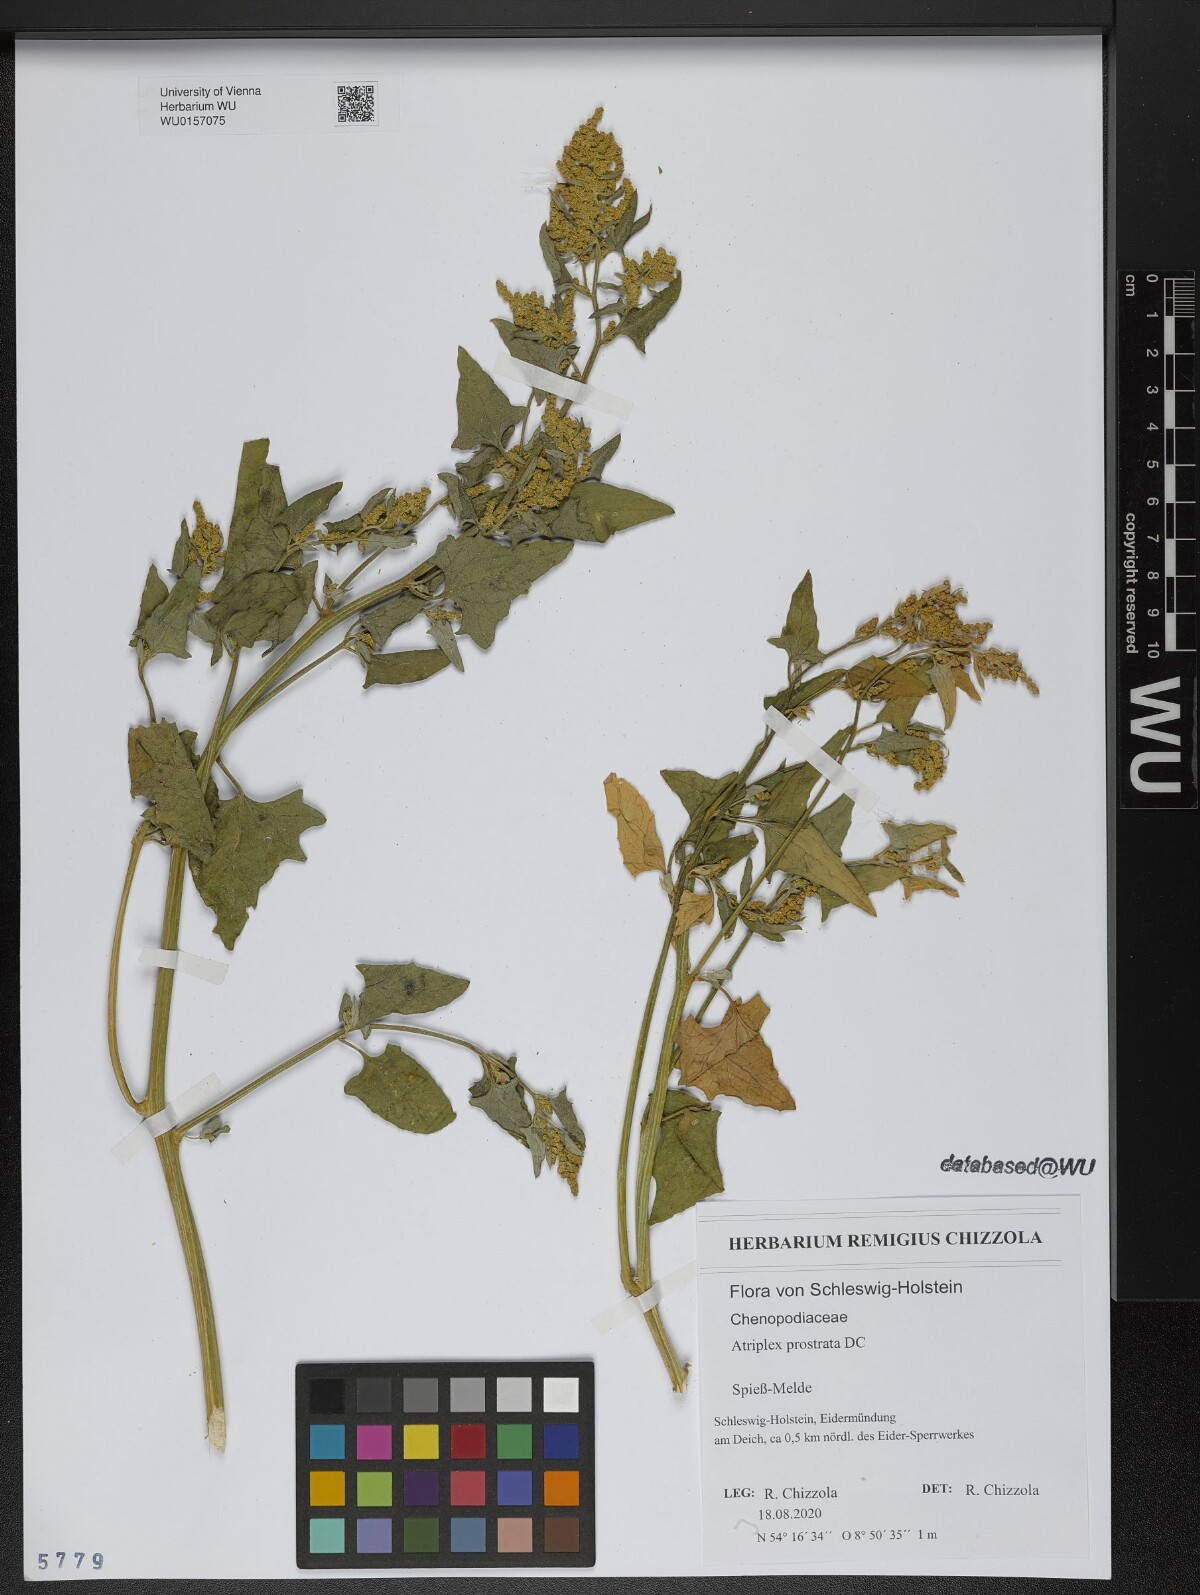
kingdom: Plantae
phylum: Tracheophyta
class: Magnoliopsida
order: Caryophyllales
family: Amaranthaceae
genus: Atriplex
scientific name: Atriplex prostrata
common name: Spear-leaved orache
